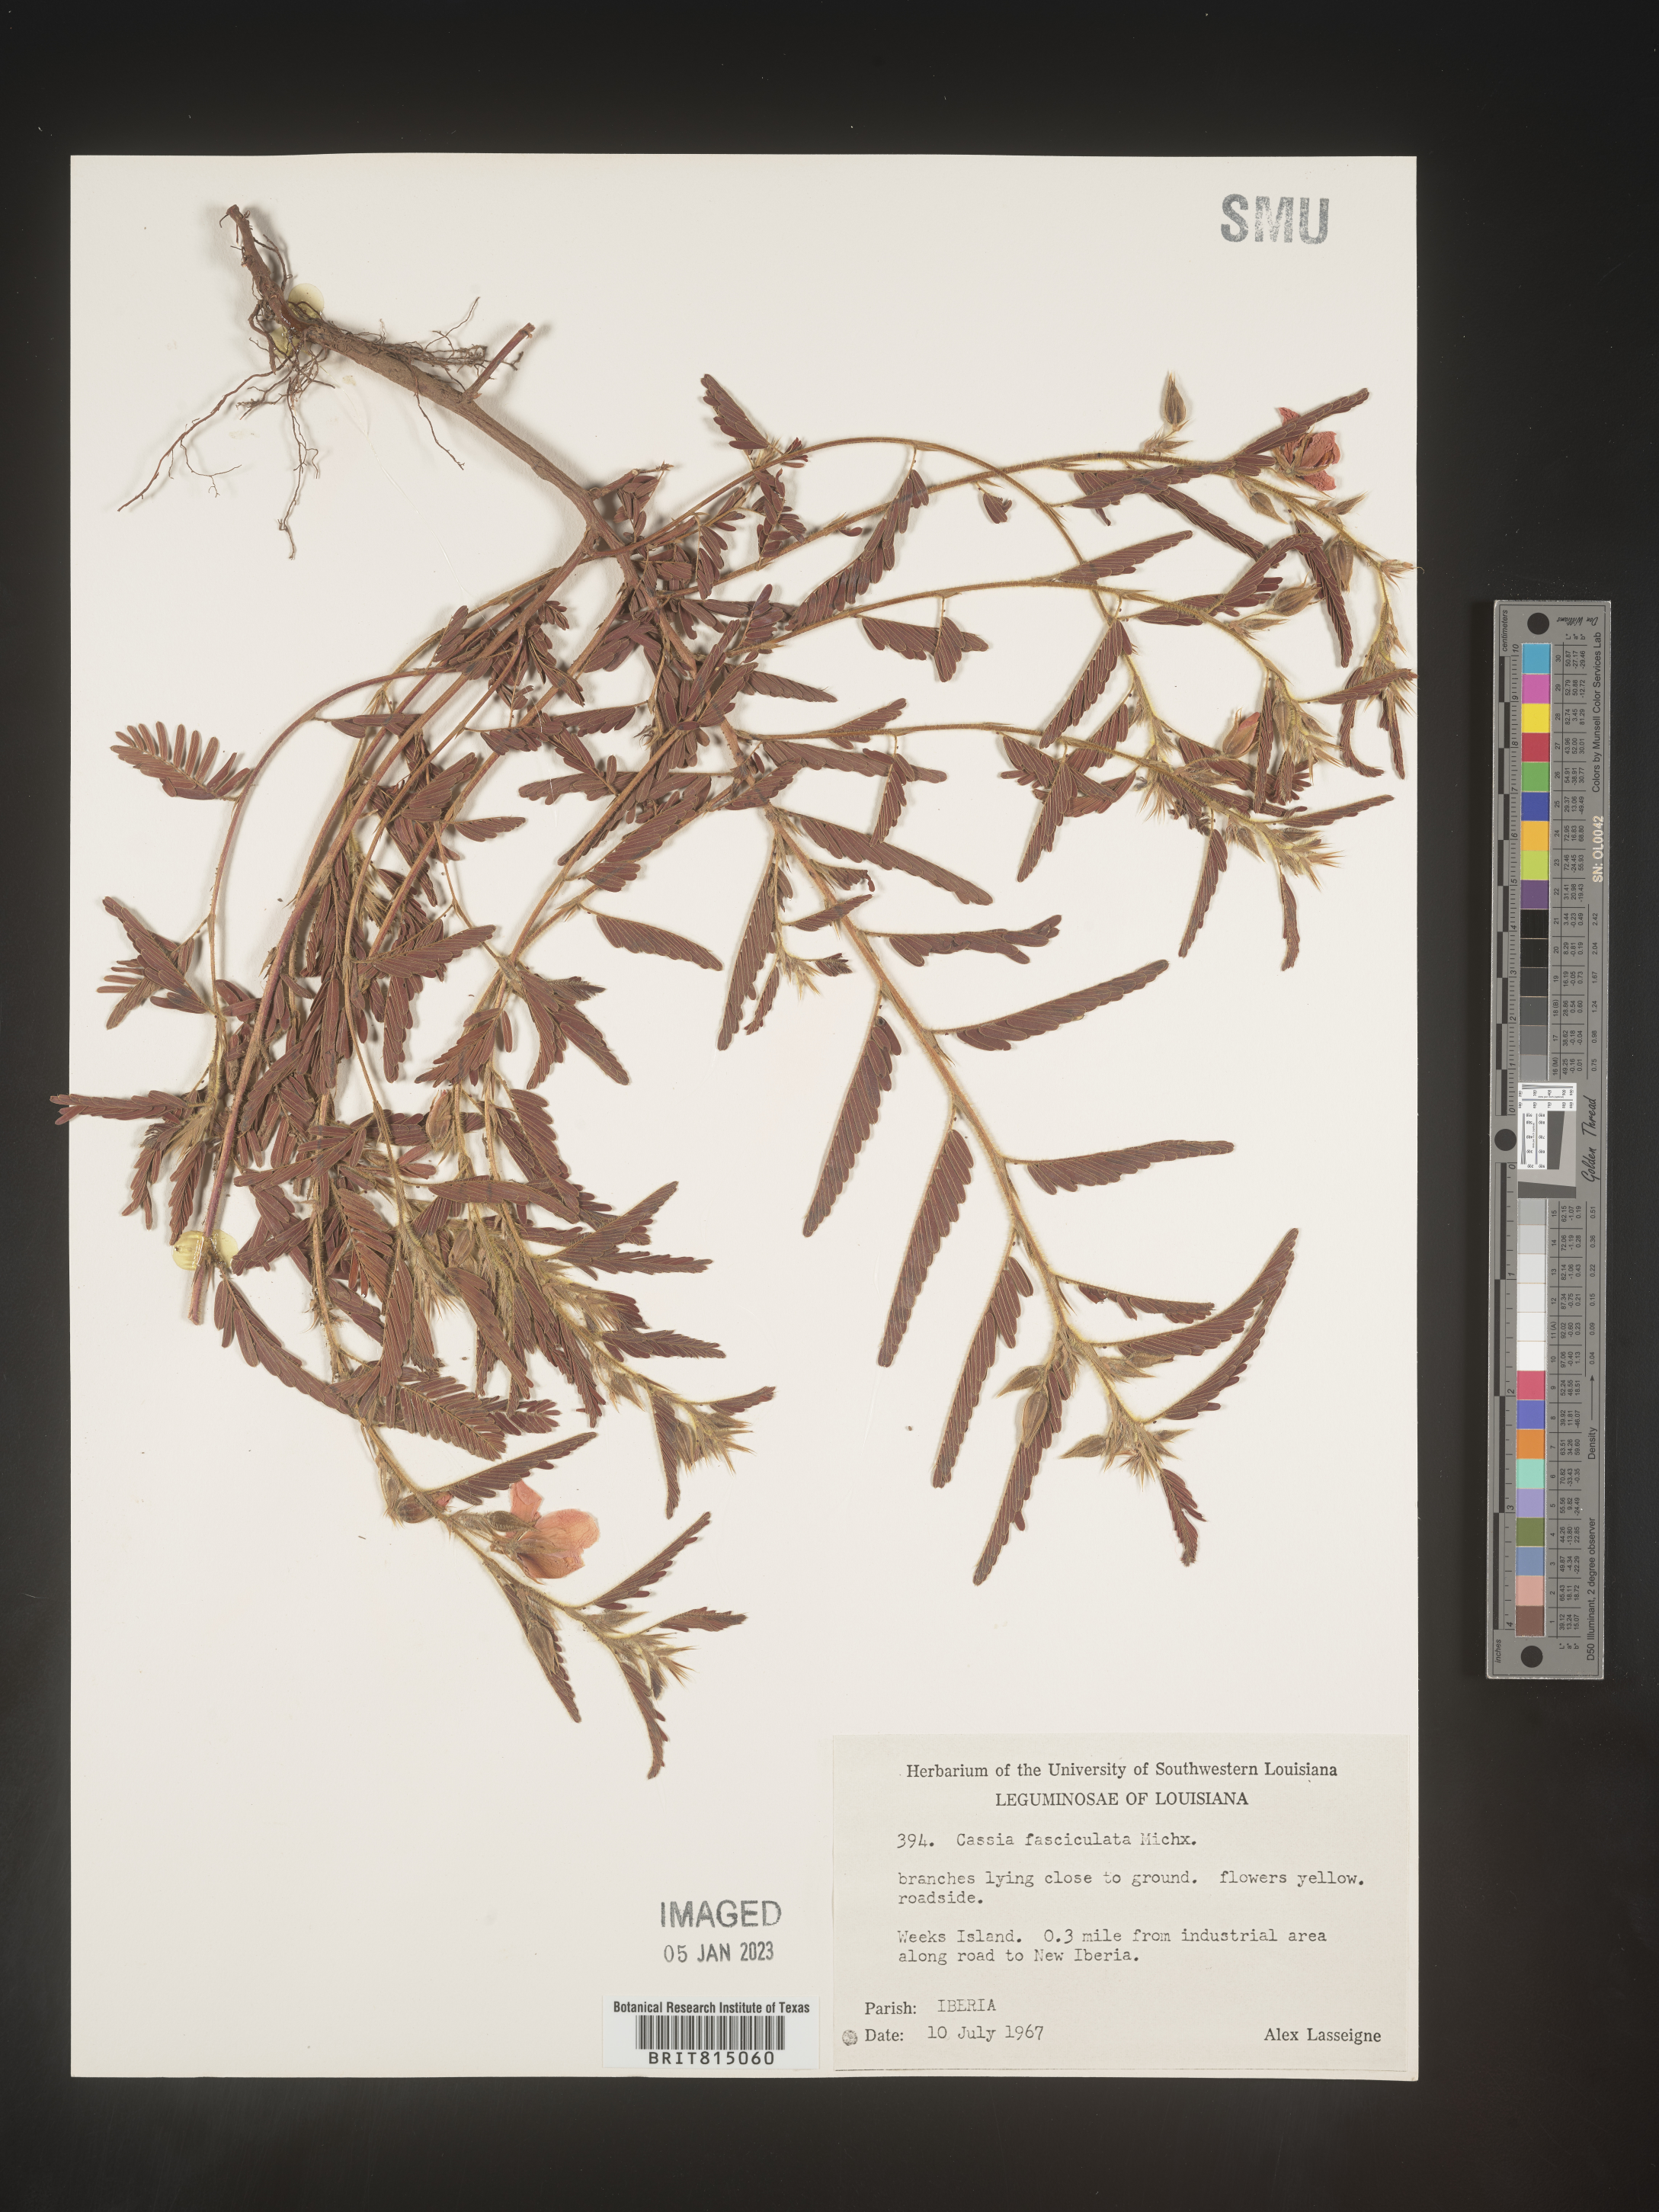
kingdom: Plantae
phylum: Tracheophyta
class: Magnoliopsida
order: Fabales
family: Fabaceae
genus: Chamaecrista
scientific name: Chamaecrista fasciculata
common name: Golden cassia
